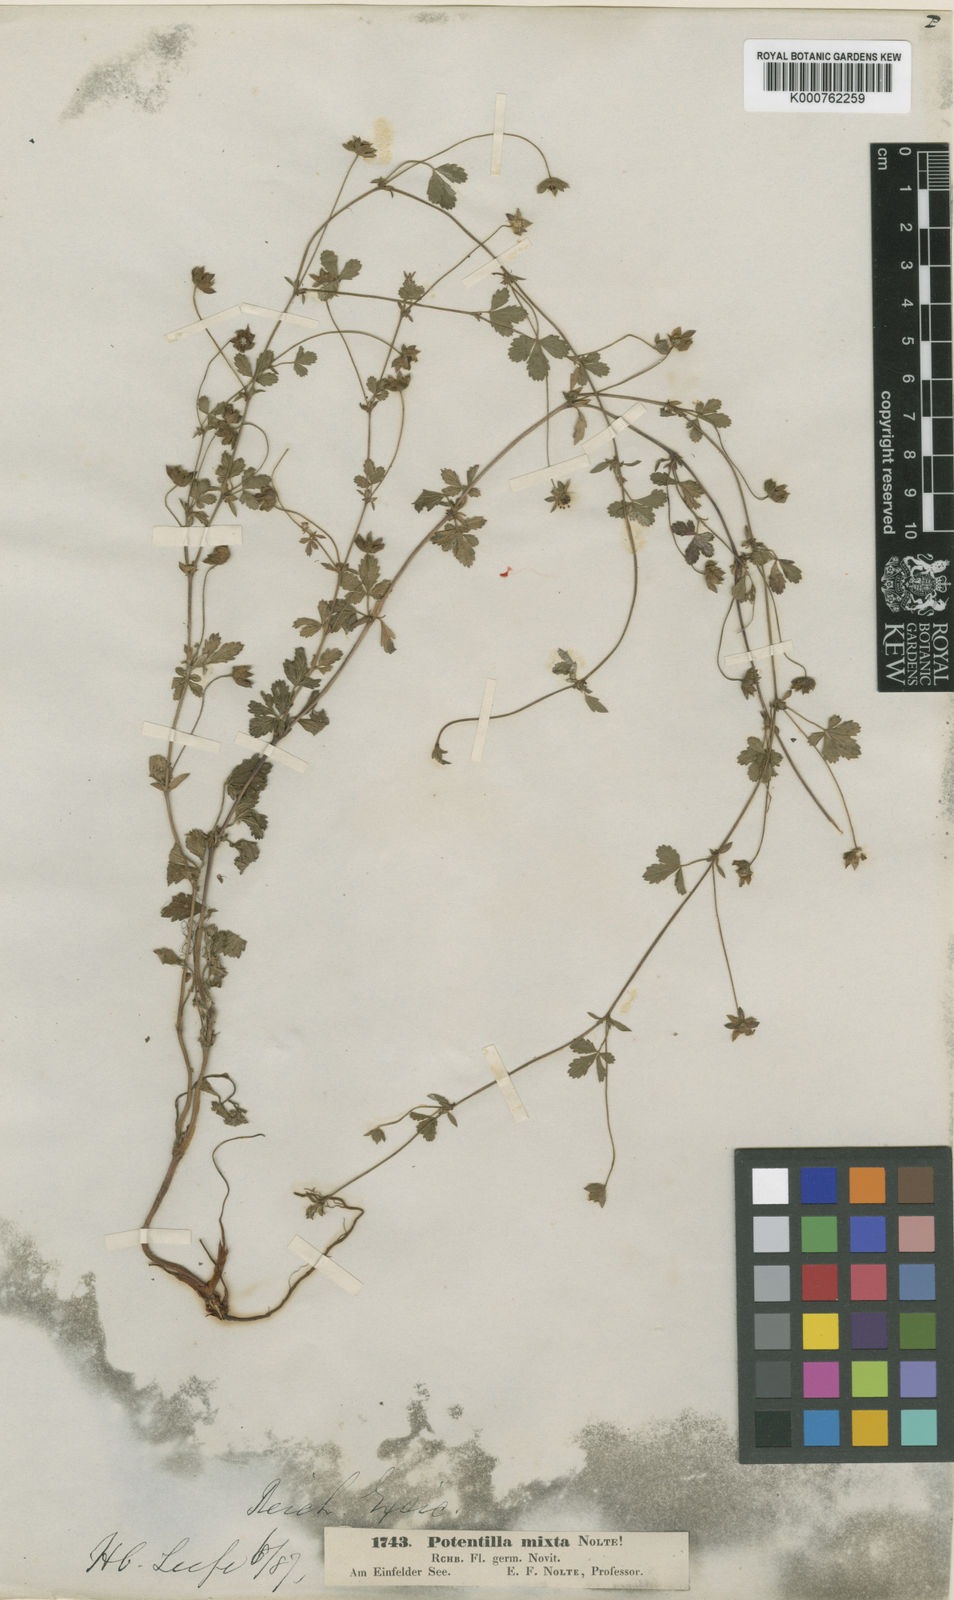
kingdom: Plantae
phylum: Tracheophyta
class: Magnoliopsida
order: Rosales
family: Rosaceae
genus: Potentilla
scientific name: Potentilla reptans
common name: Creeping cinquefoil
